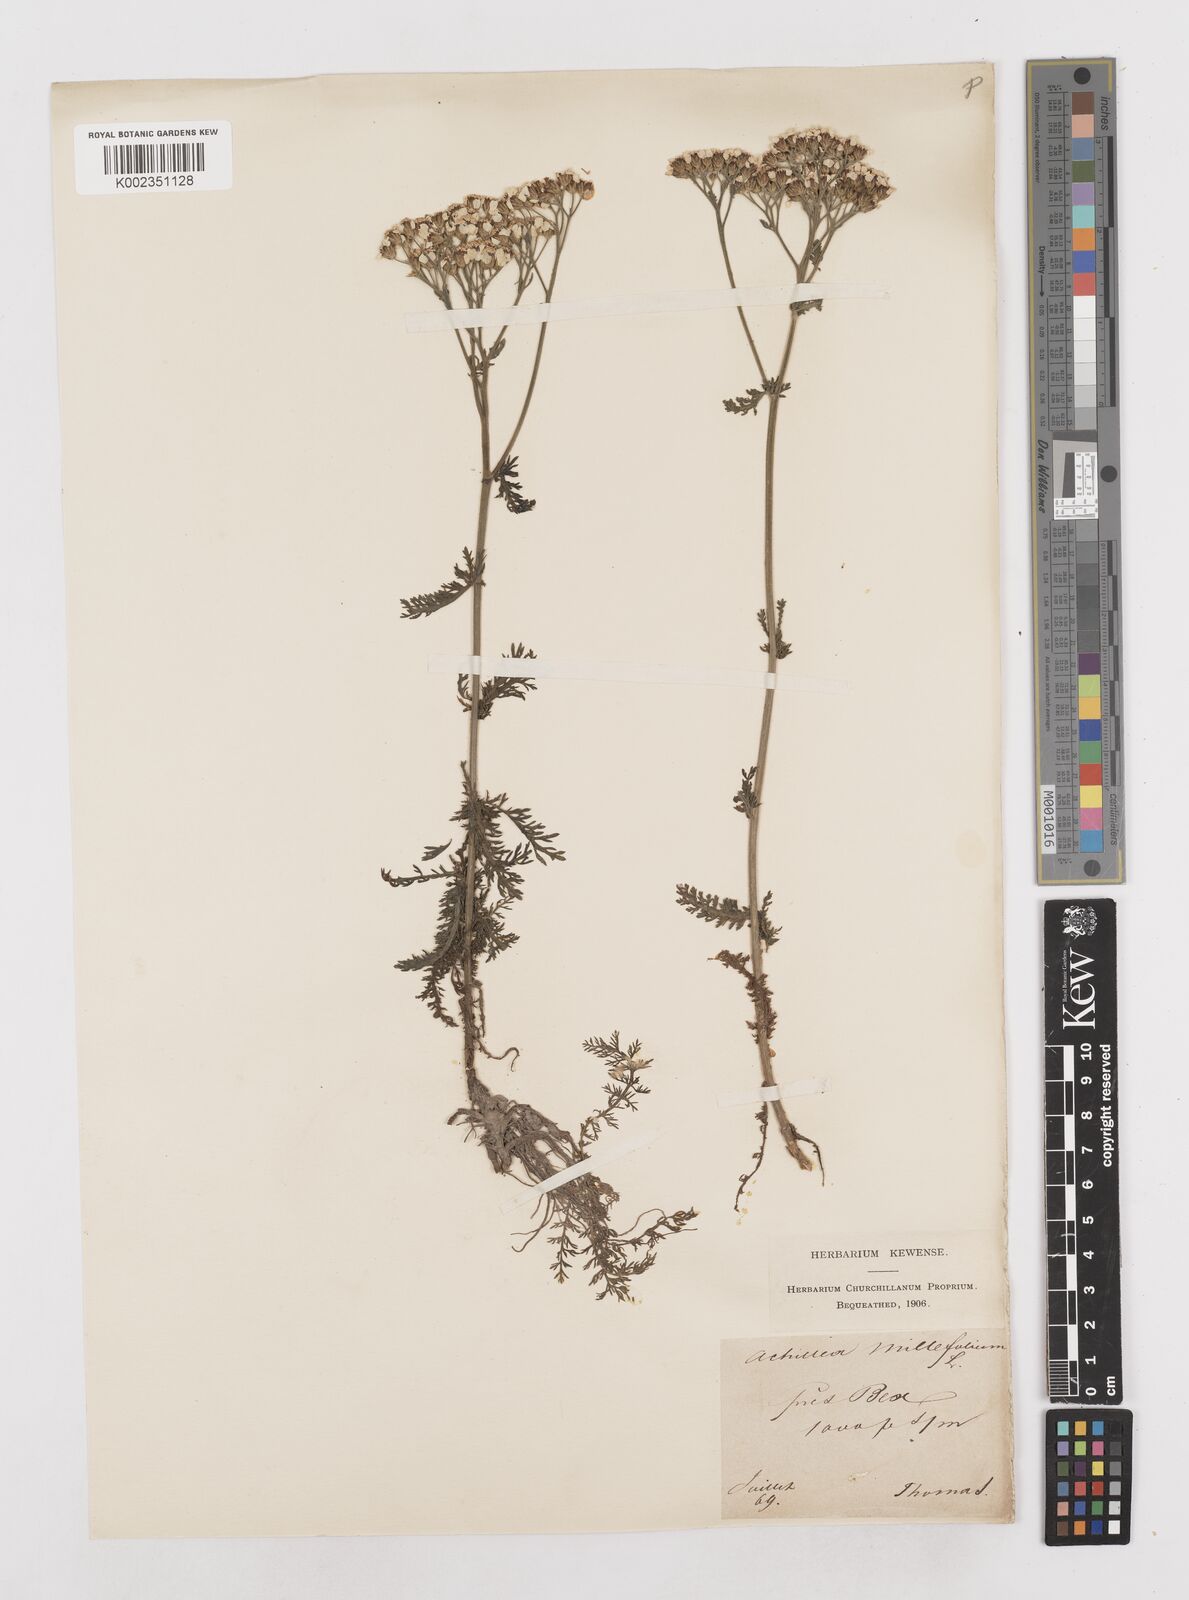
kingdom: Plantae
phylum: Tracheophyta
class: Magnoliopsida
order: Asterales
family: Asteraceae
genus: Achillea
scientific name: Achillea millefolium
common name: Yarrow
